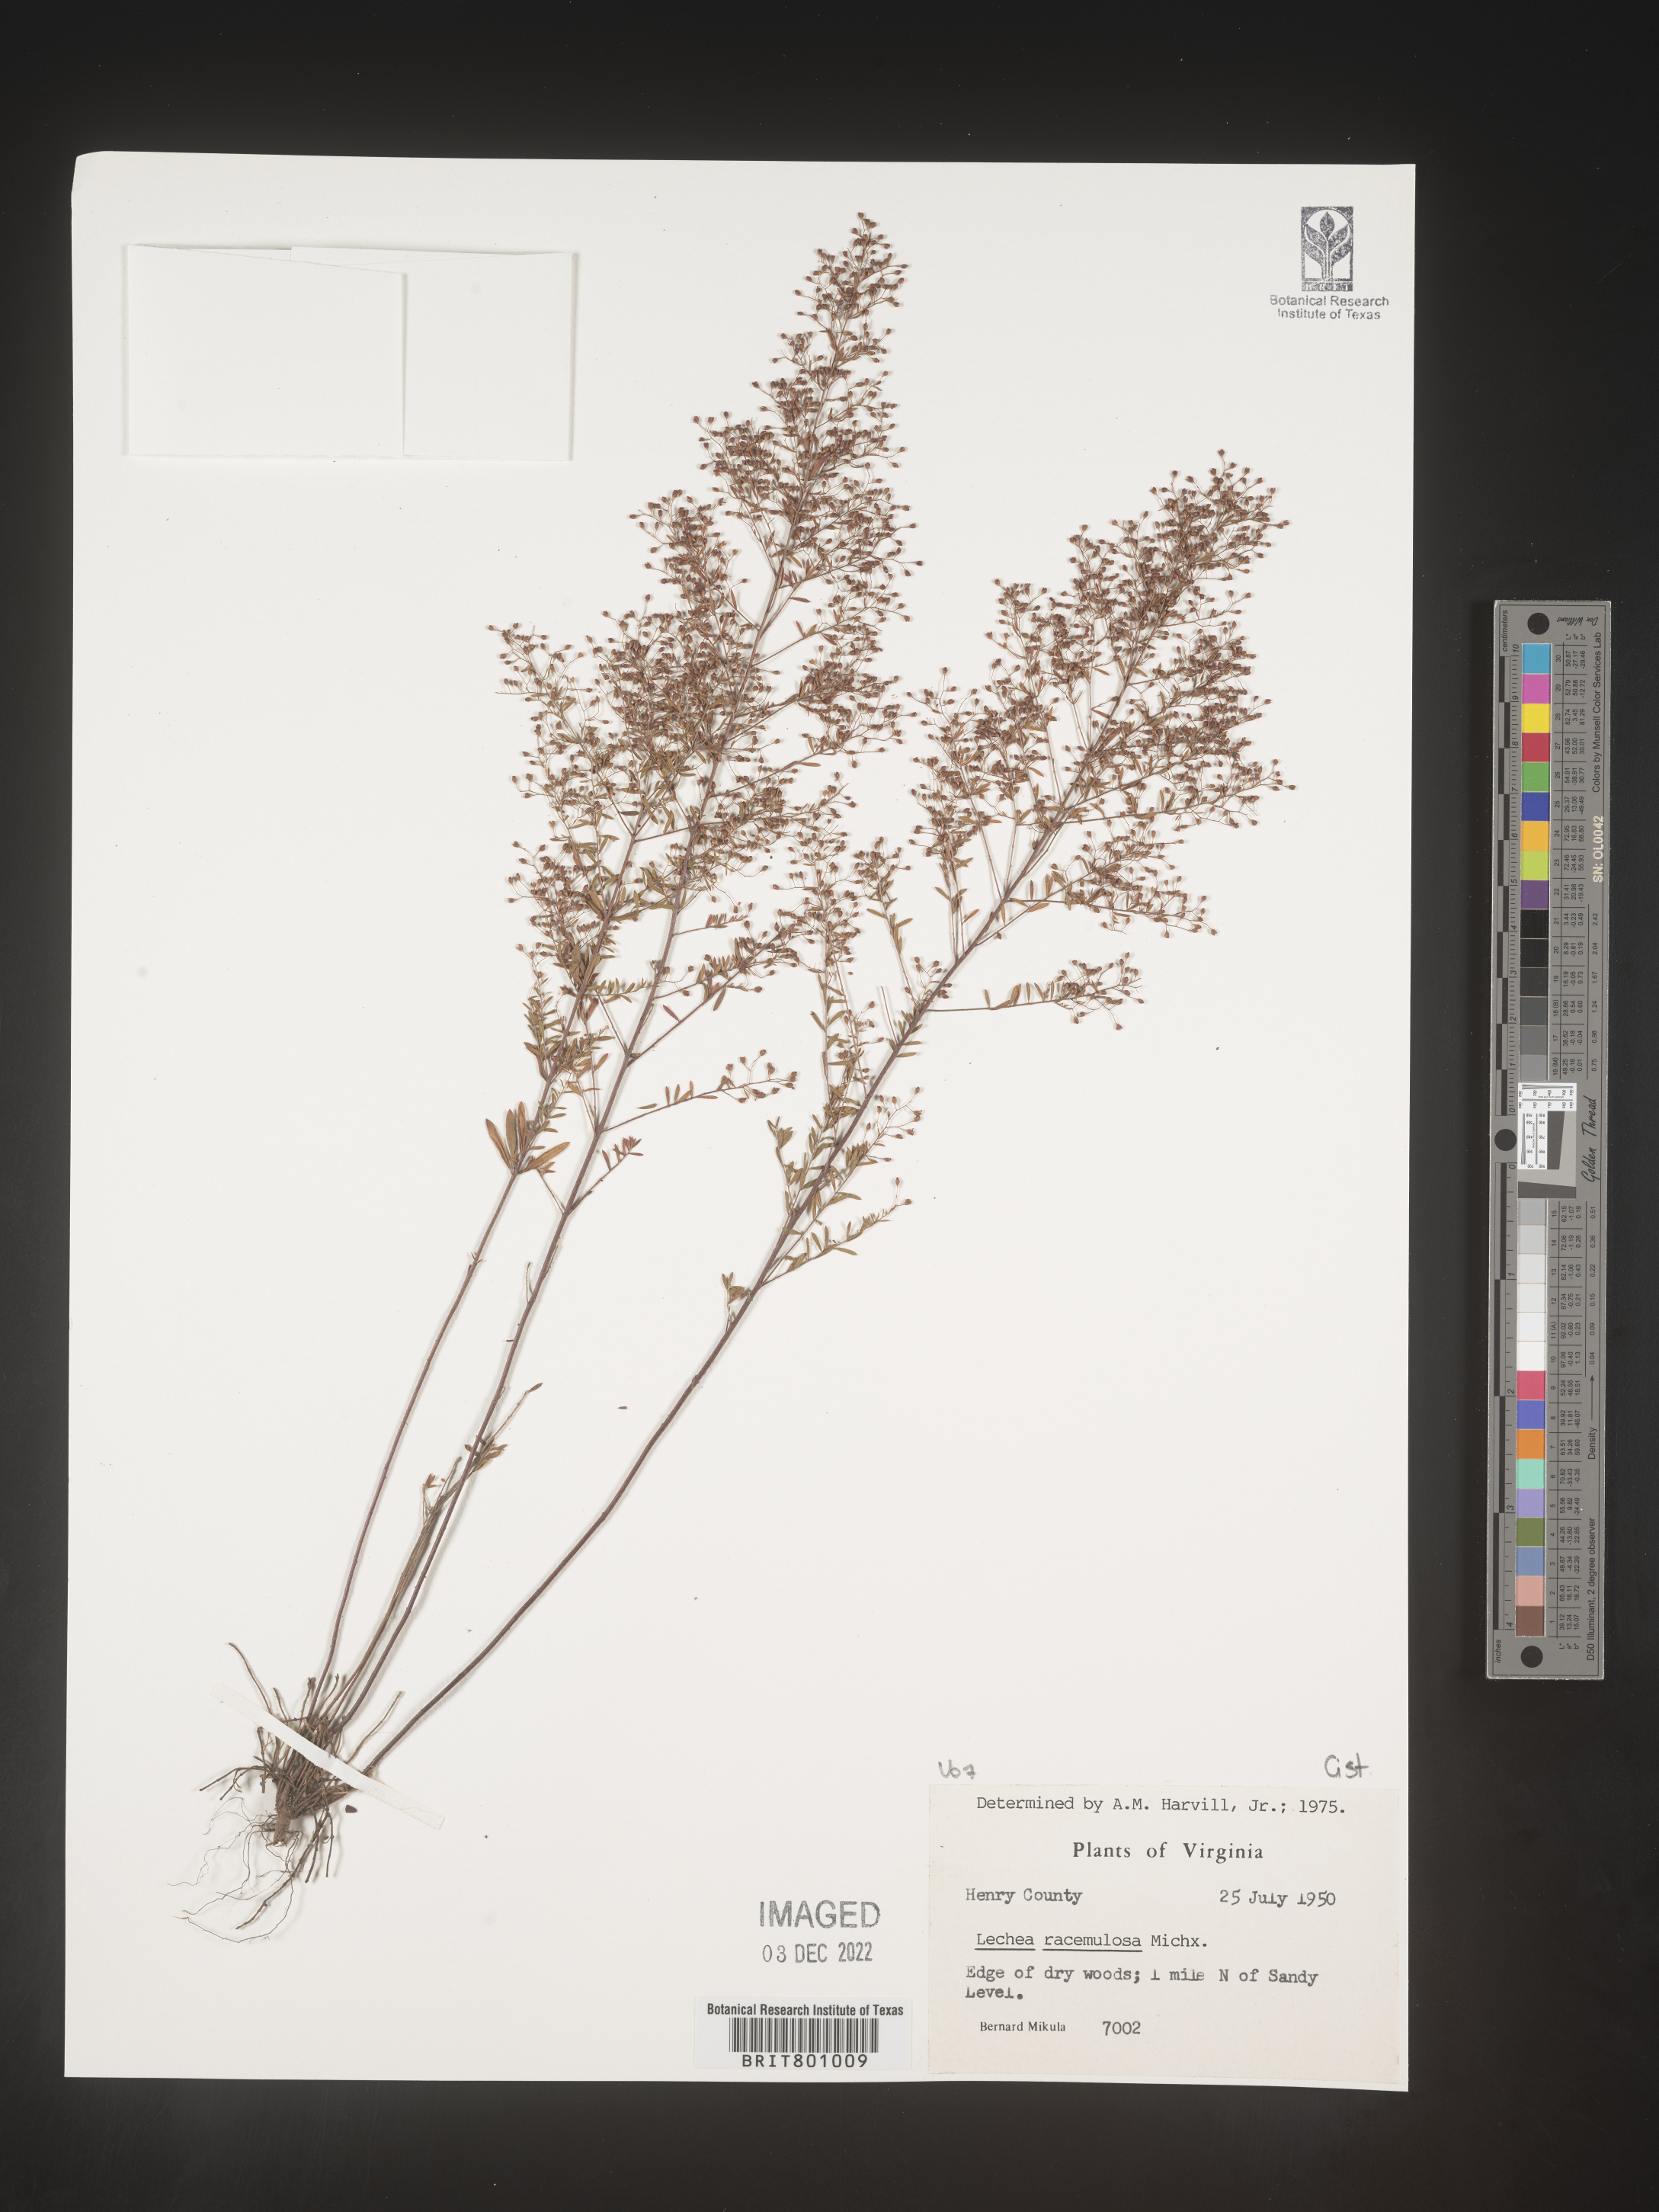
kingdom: Plantae
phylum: Tracheophyta
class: Magnoliopsida
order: Malvales
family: Cistaceae
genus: Lechea
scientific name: Lechea racemulosa
